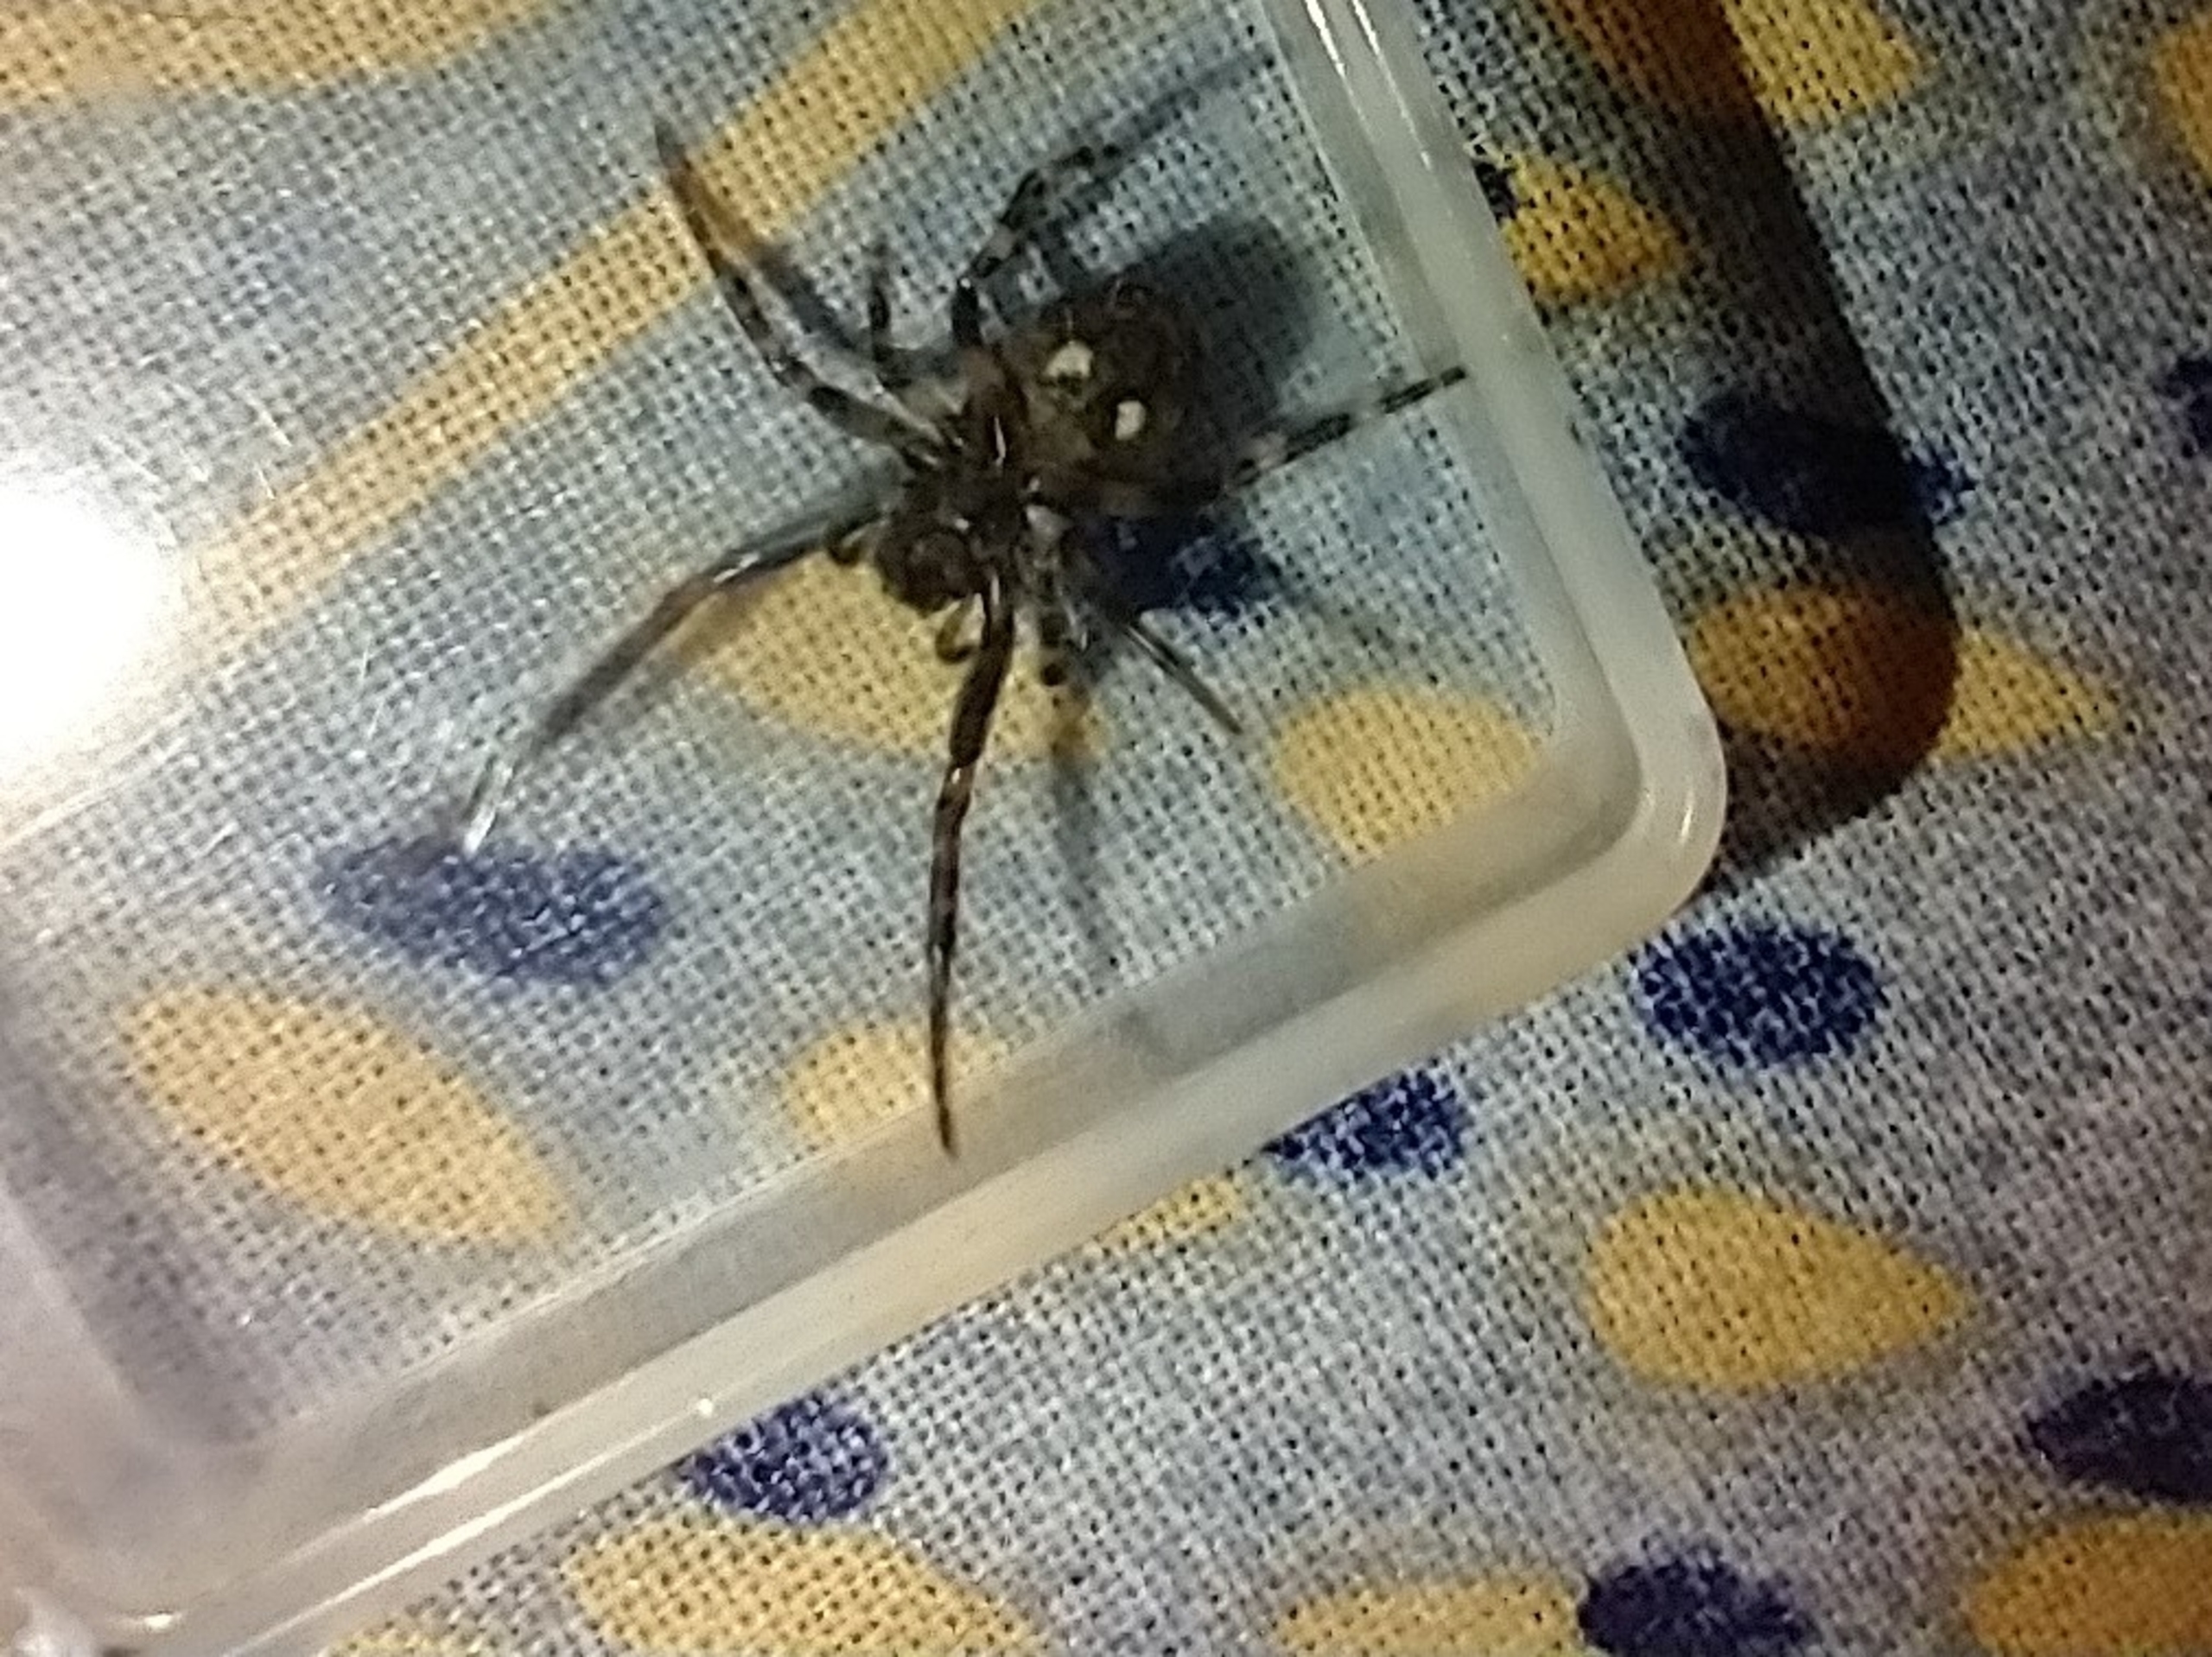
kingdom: Animalia
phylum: Arthropoda
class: Arachnida
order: Araneae
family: Araneidae
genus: Nuctenea
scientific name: Nuctenea umbratica
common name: Flad hjulspinder
